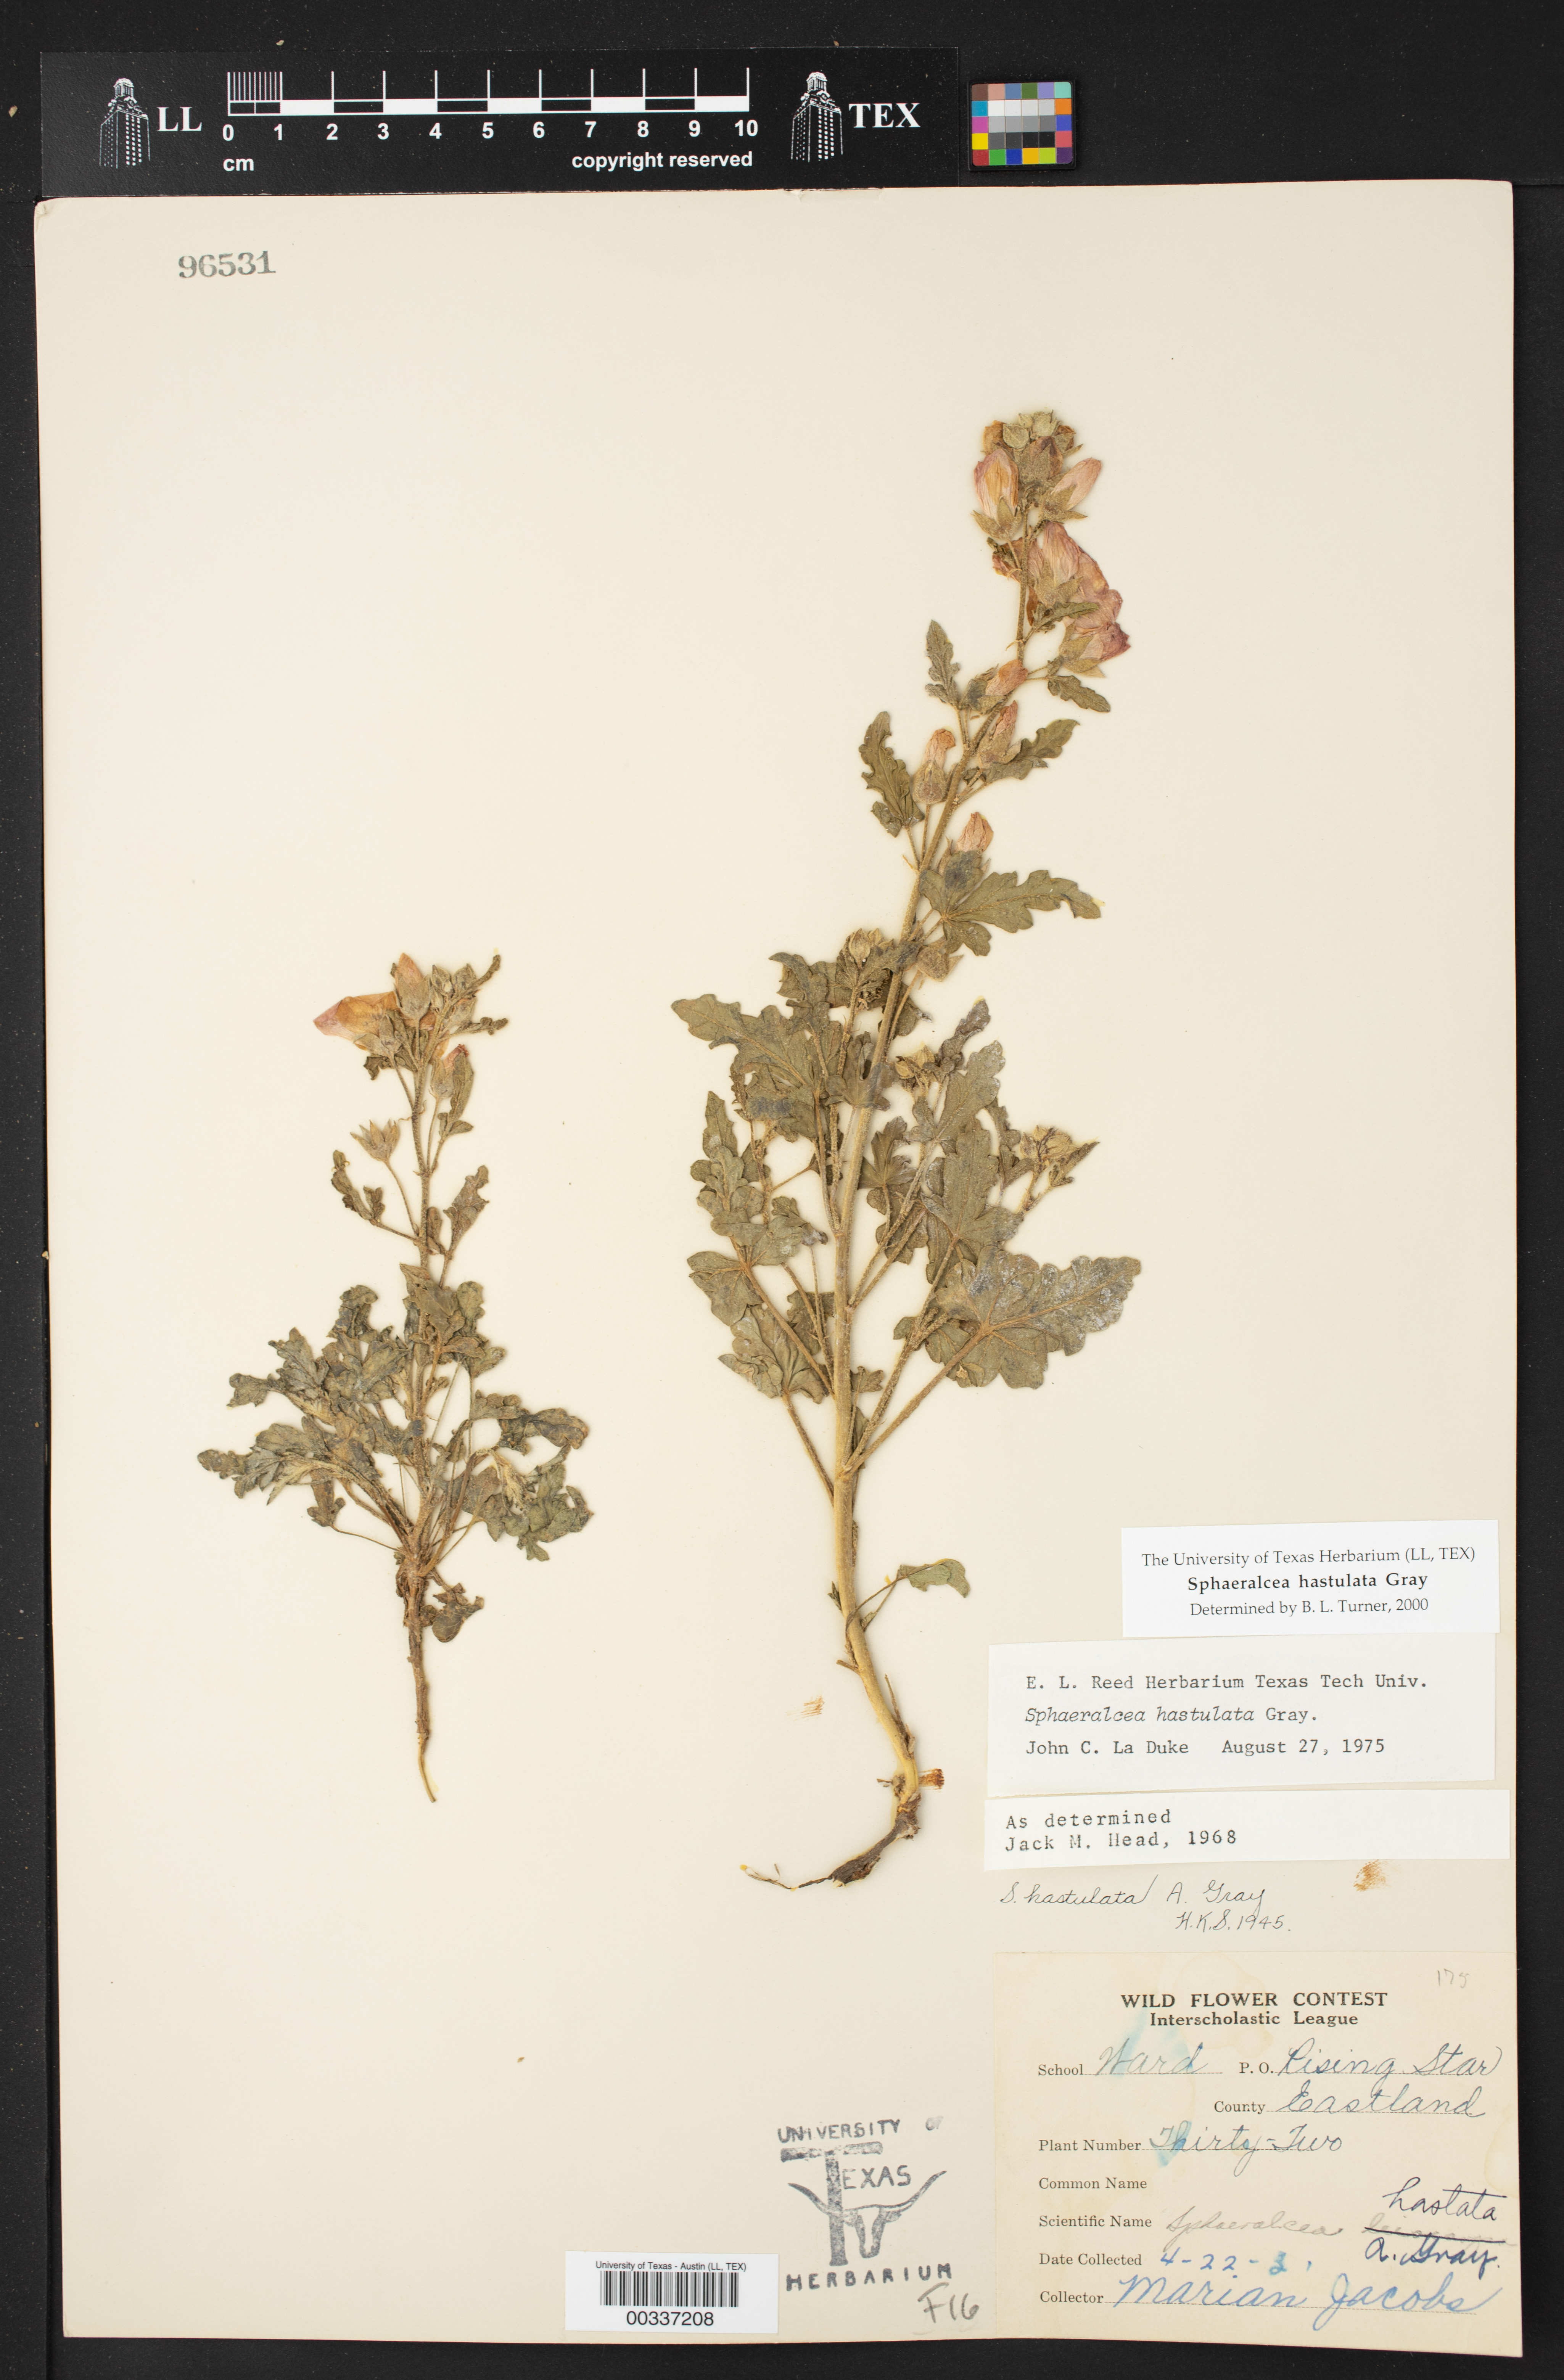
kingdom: Plantae
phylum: Tracheophyta
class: Magnoliopsida
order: Malvales
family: Malvaceae
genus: Sphaeralcea
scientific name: Sphaeralcea hastulata
